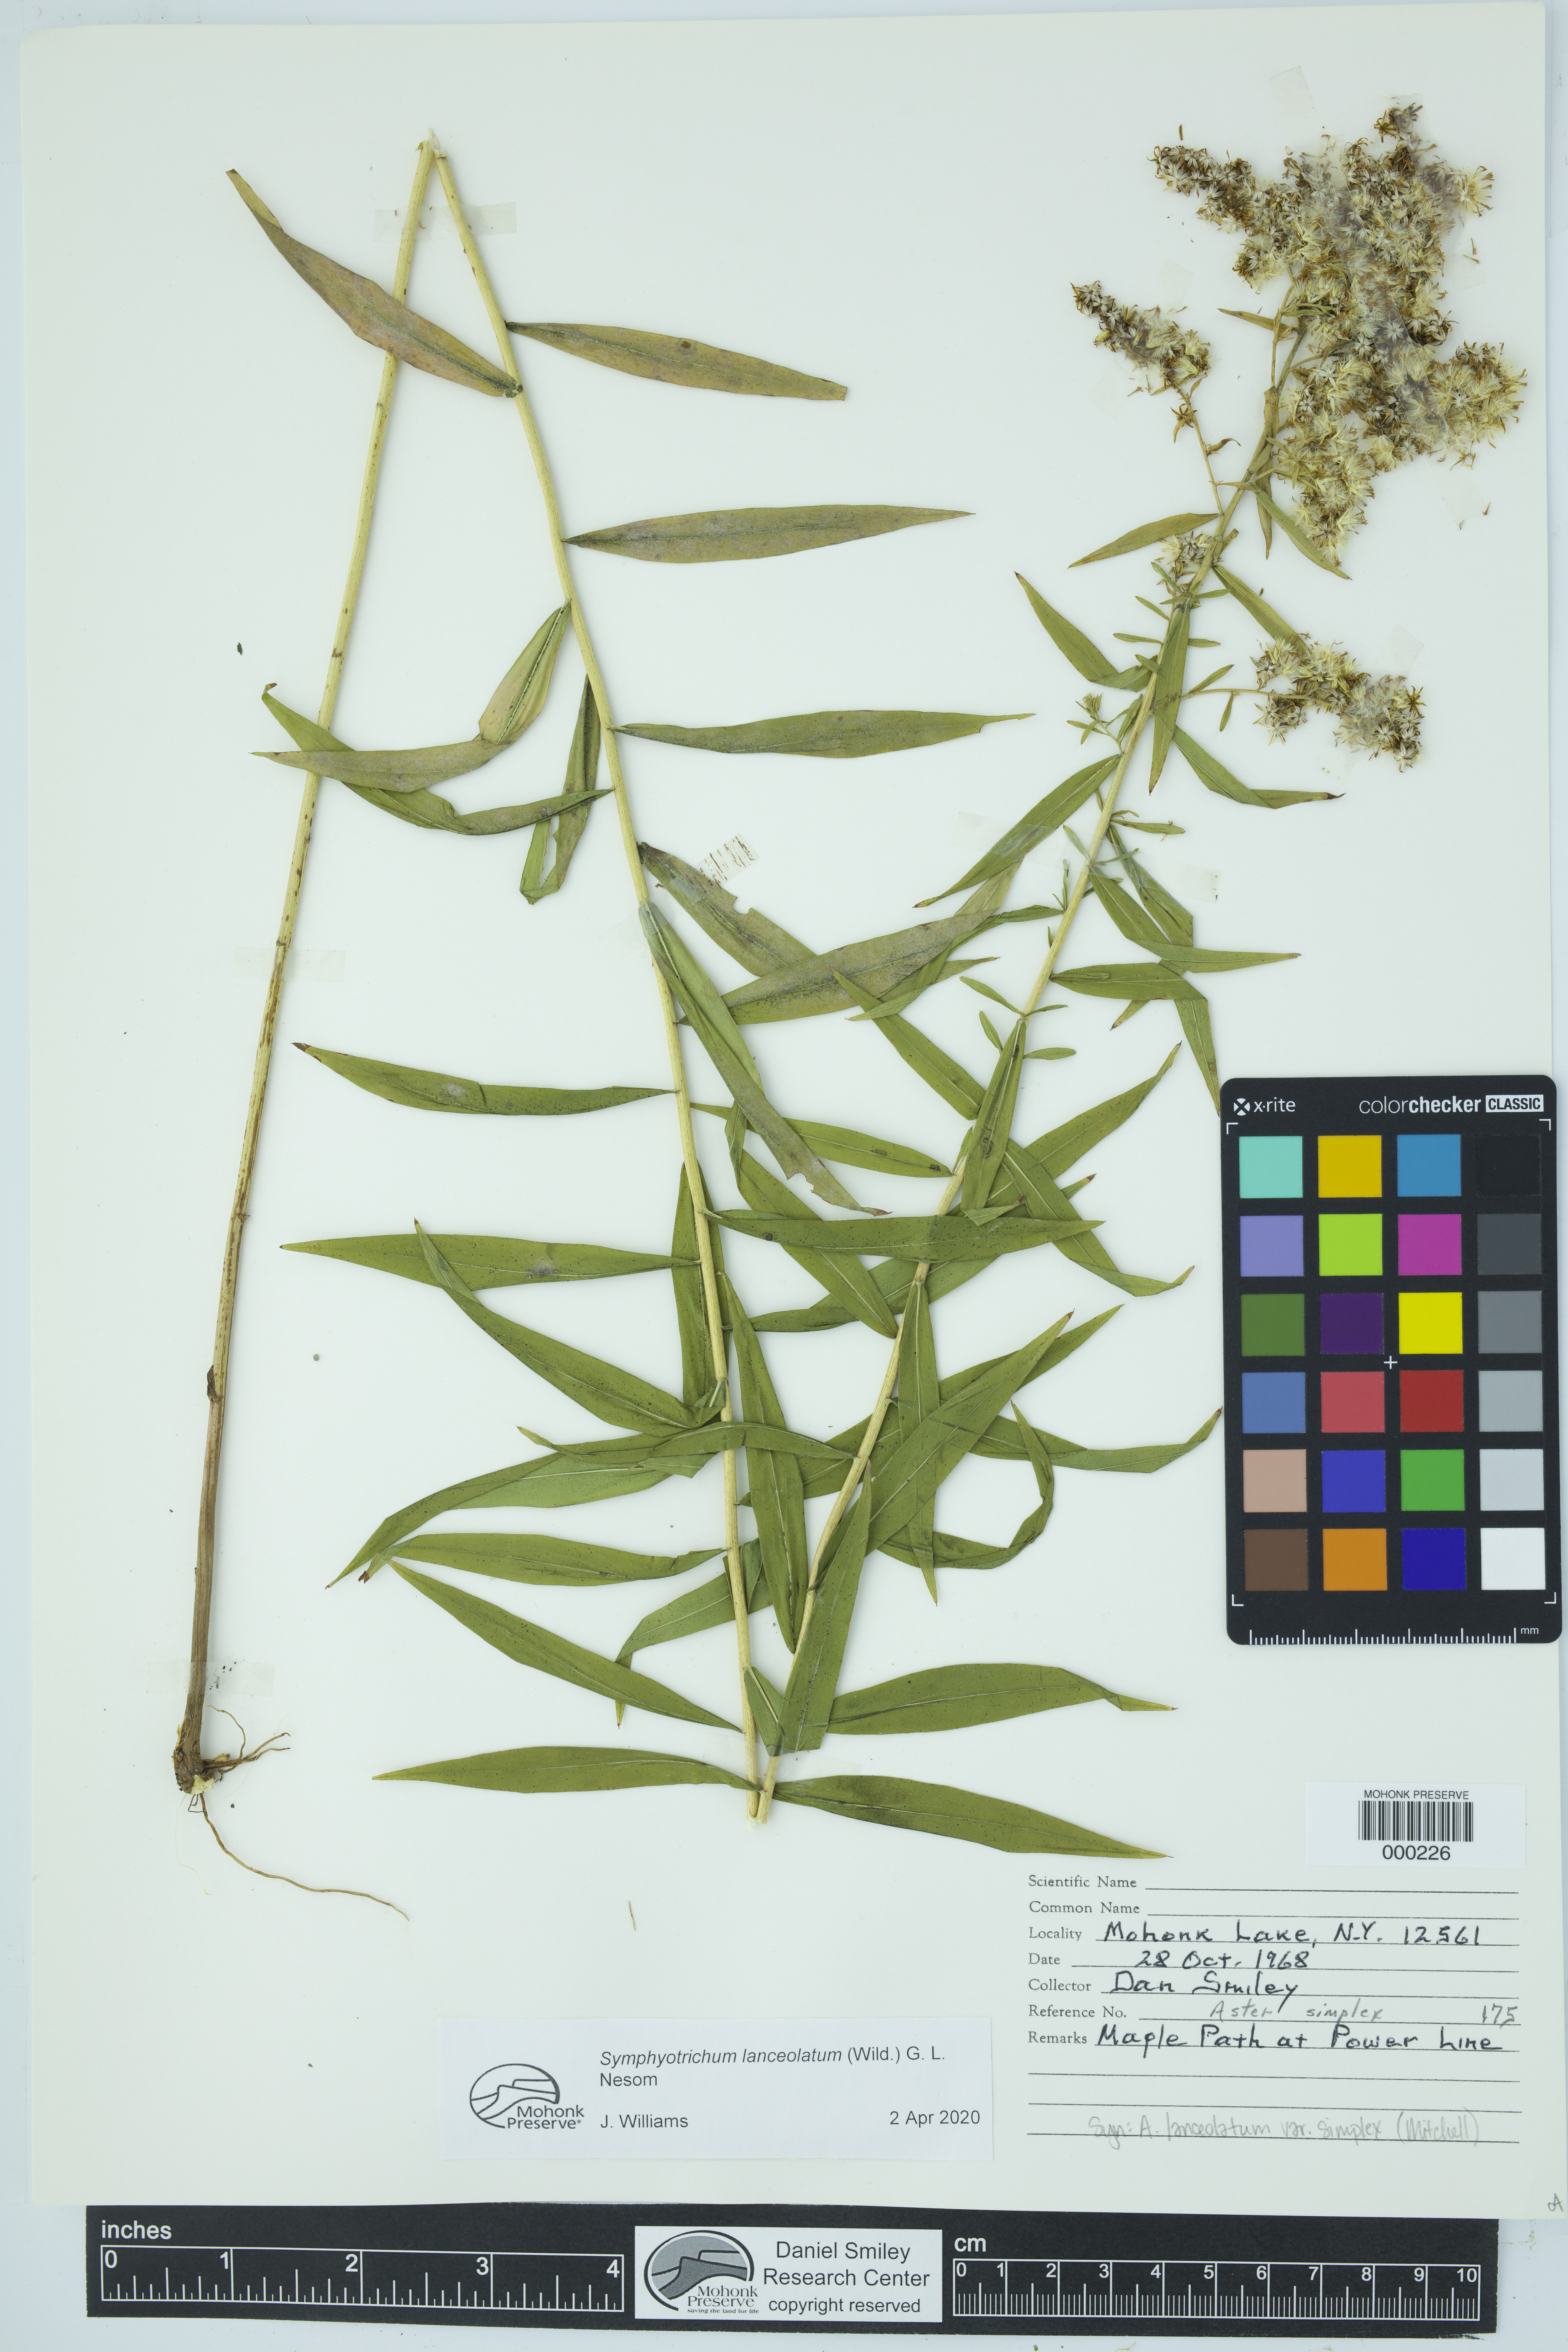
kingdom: Plantae
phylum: Tracheophyta
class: Magnoliopsida
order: Asterales
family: Asteraceae
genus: Symphyotrichum
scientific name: Symphyotrichum lanceolatum
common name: Panicled aster
